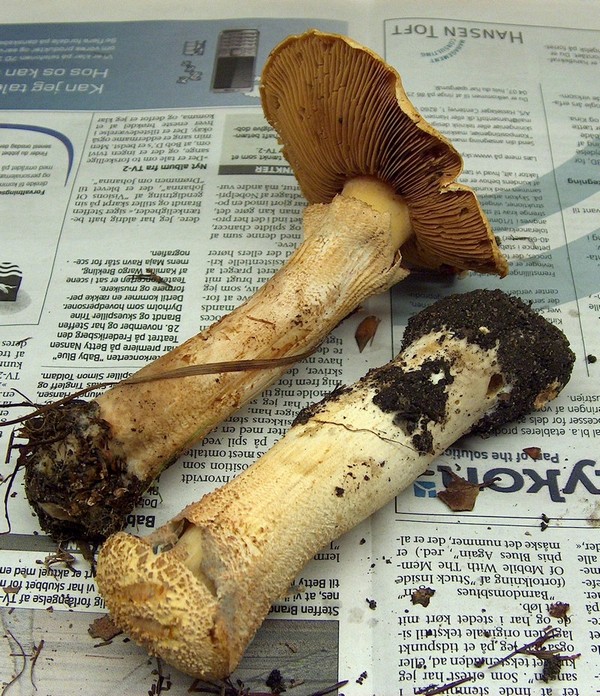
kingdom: Fungi
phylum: Basidiomycota
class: Agaricomycetes
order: Agaricales
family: Tricholomataceae
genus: Phaeolepiota
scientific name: Phaeolepiota aurea
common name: gyldenhat
